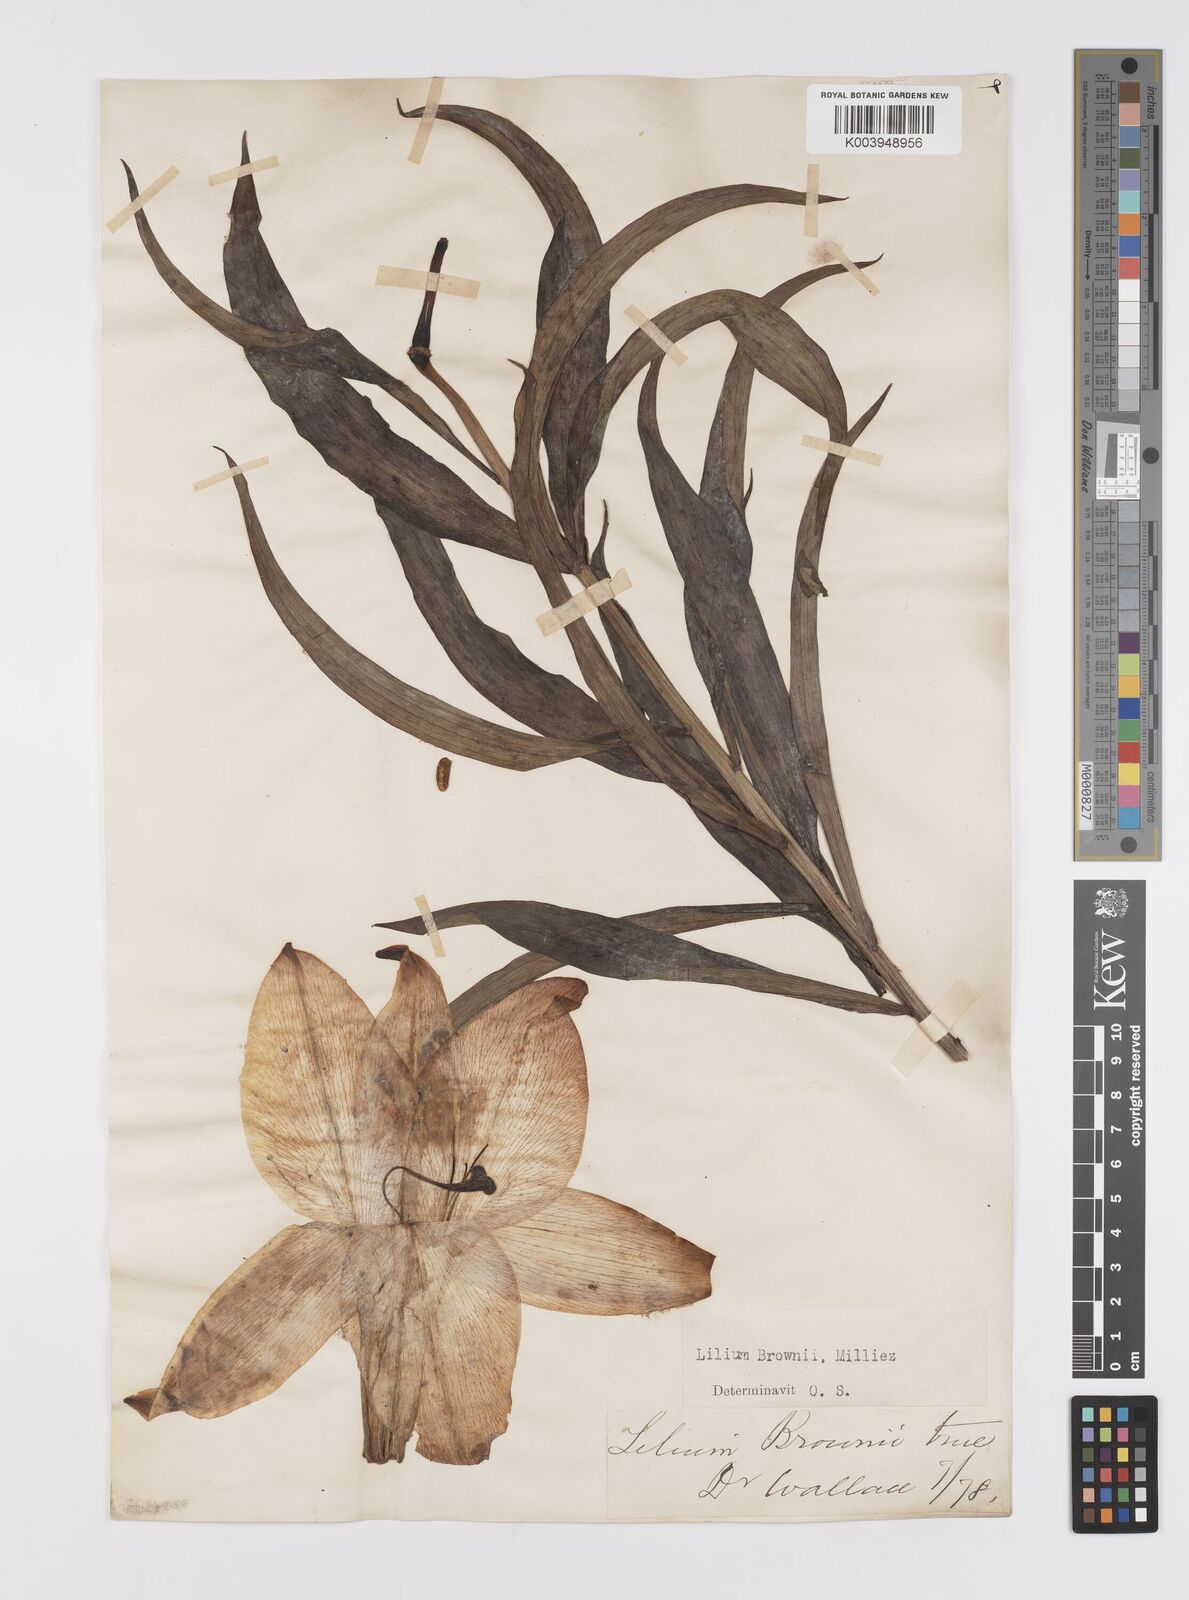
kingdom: Plantae
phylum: Tracheophyta
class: Liliopsida
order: Liliales
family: Liliaceae
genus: Lilium
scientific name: Lilium japonicum
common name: Japanese lily
